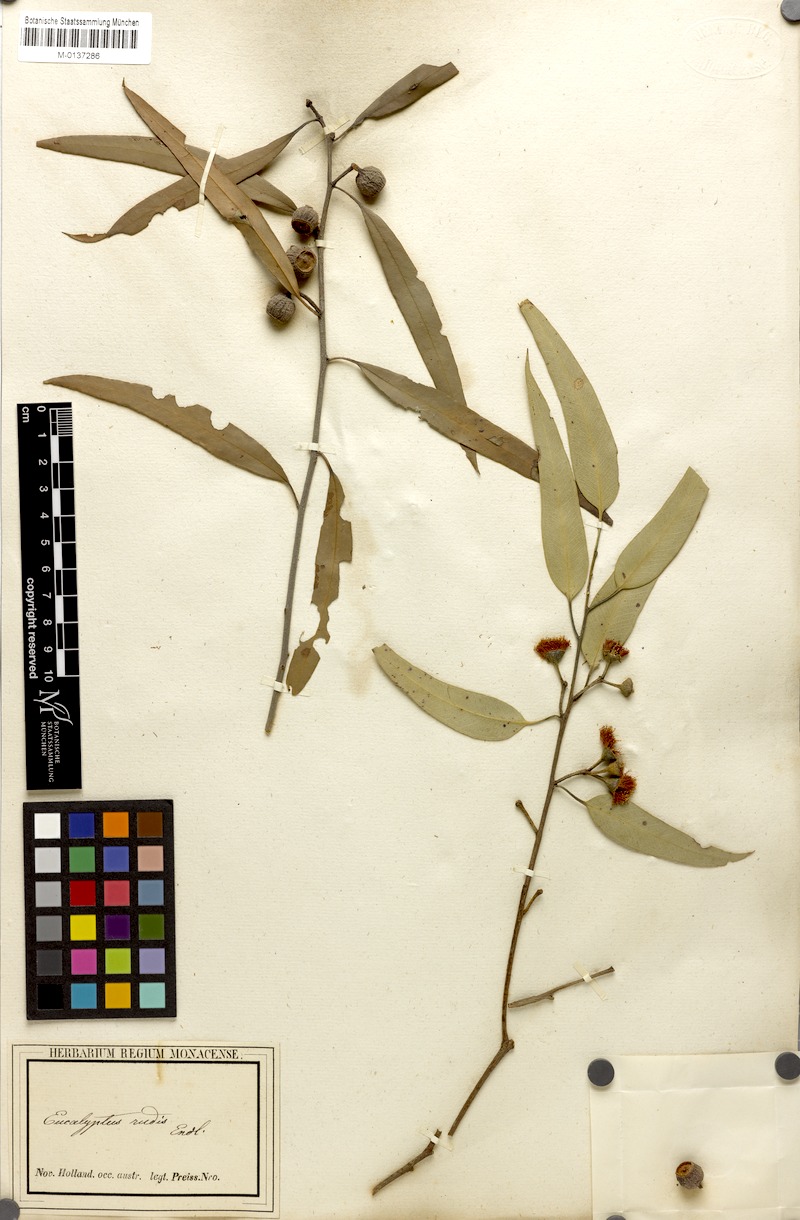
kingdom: Plantae
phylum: Tracheophyta
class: Magnoliopsida
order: Myrtales
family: Myrtaceae
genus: Eucalyptus
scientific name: Eucalyptus rudis
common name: Flooded gum
